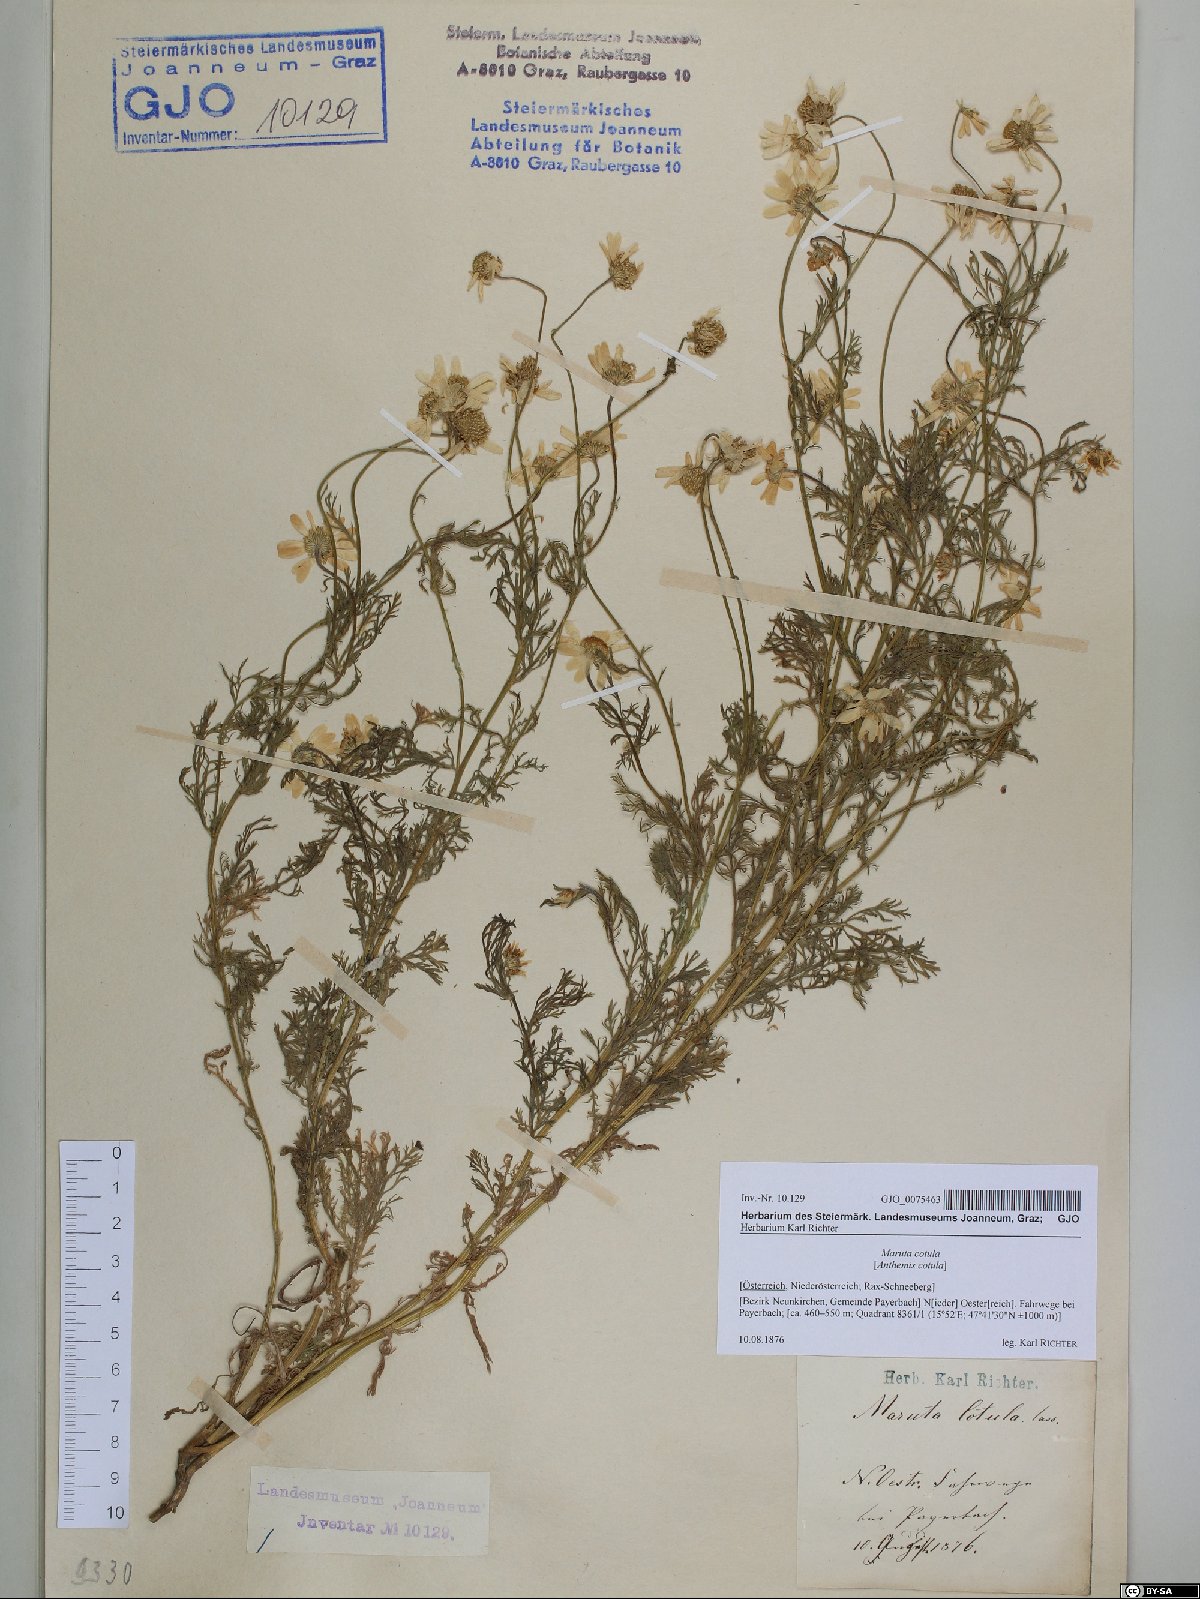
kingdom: Plantae
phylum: Tracheophyta
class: Magnoliopsida
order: Asterales
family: Asteraceae
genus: Anthemis
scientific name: Anthemis cotula
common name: Stinking chamomile
